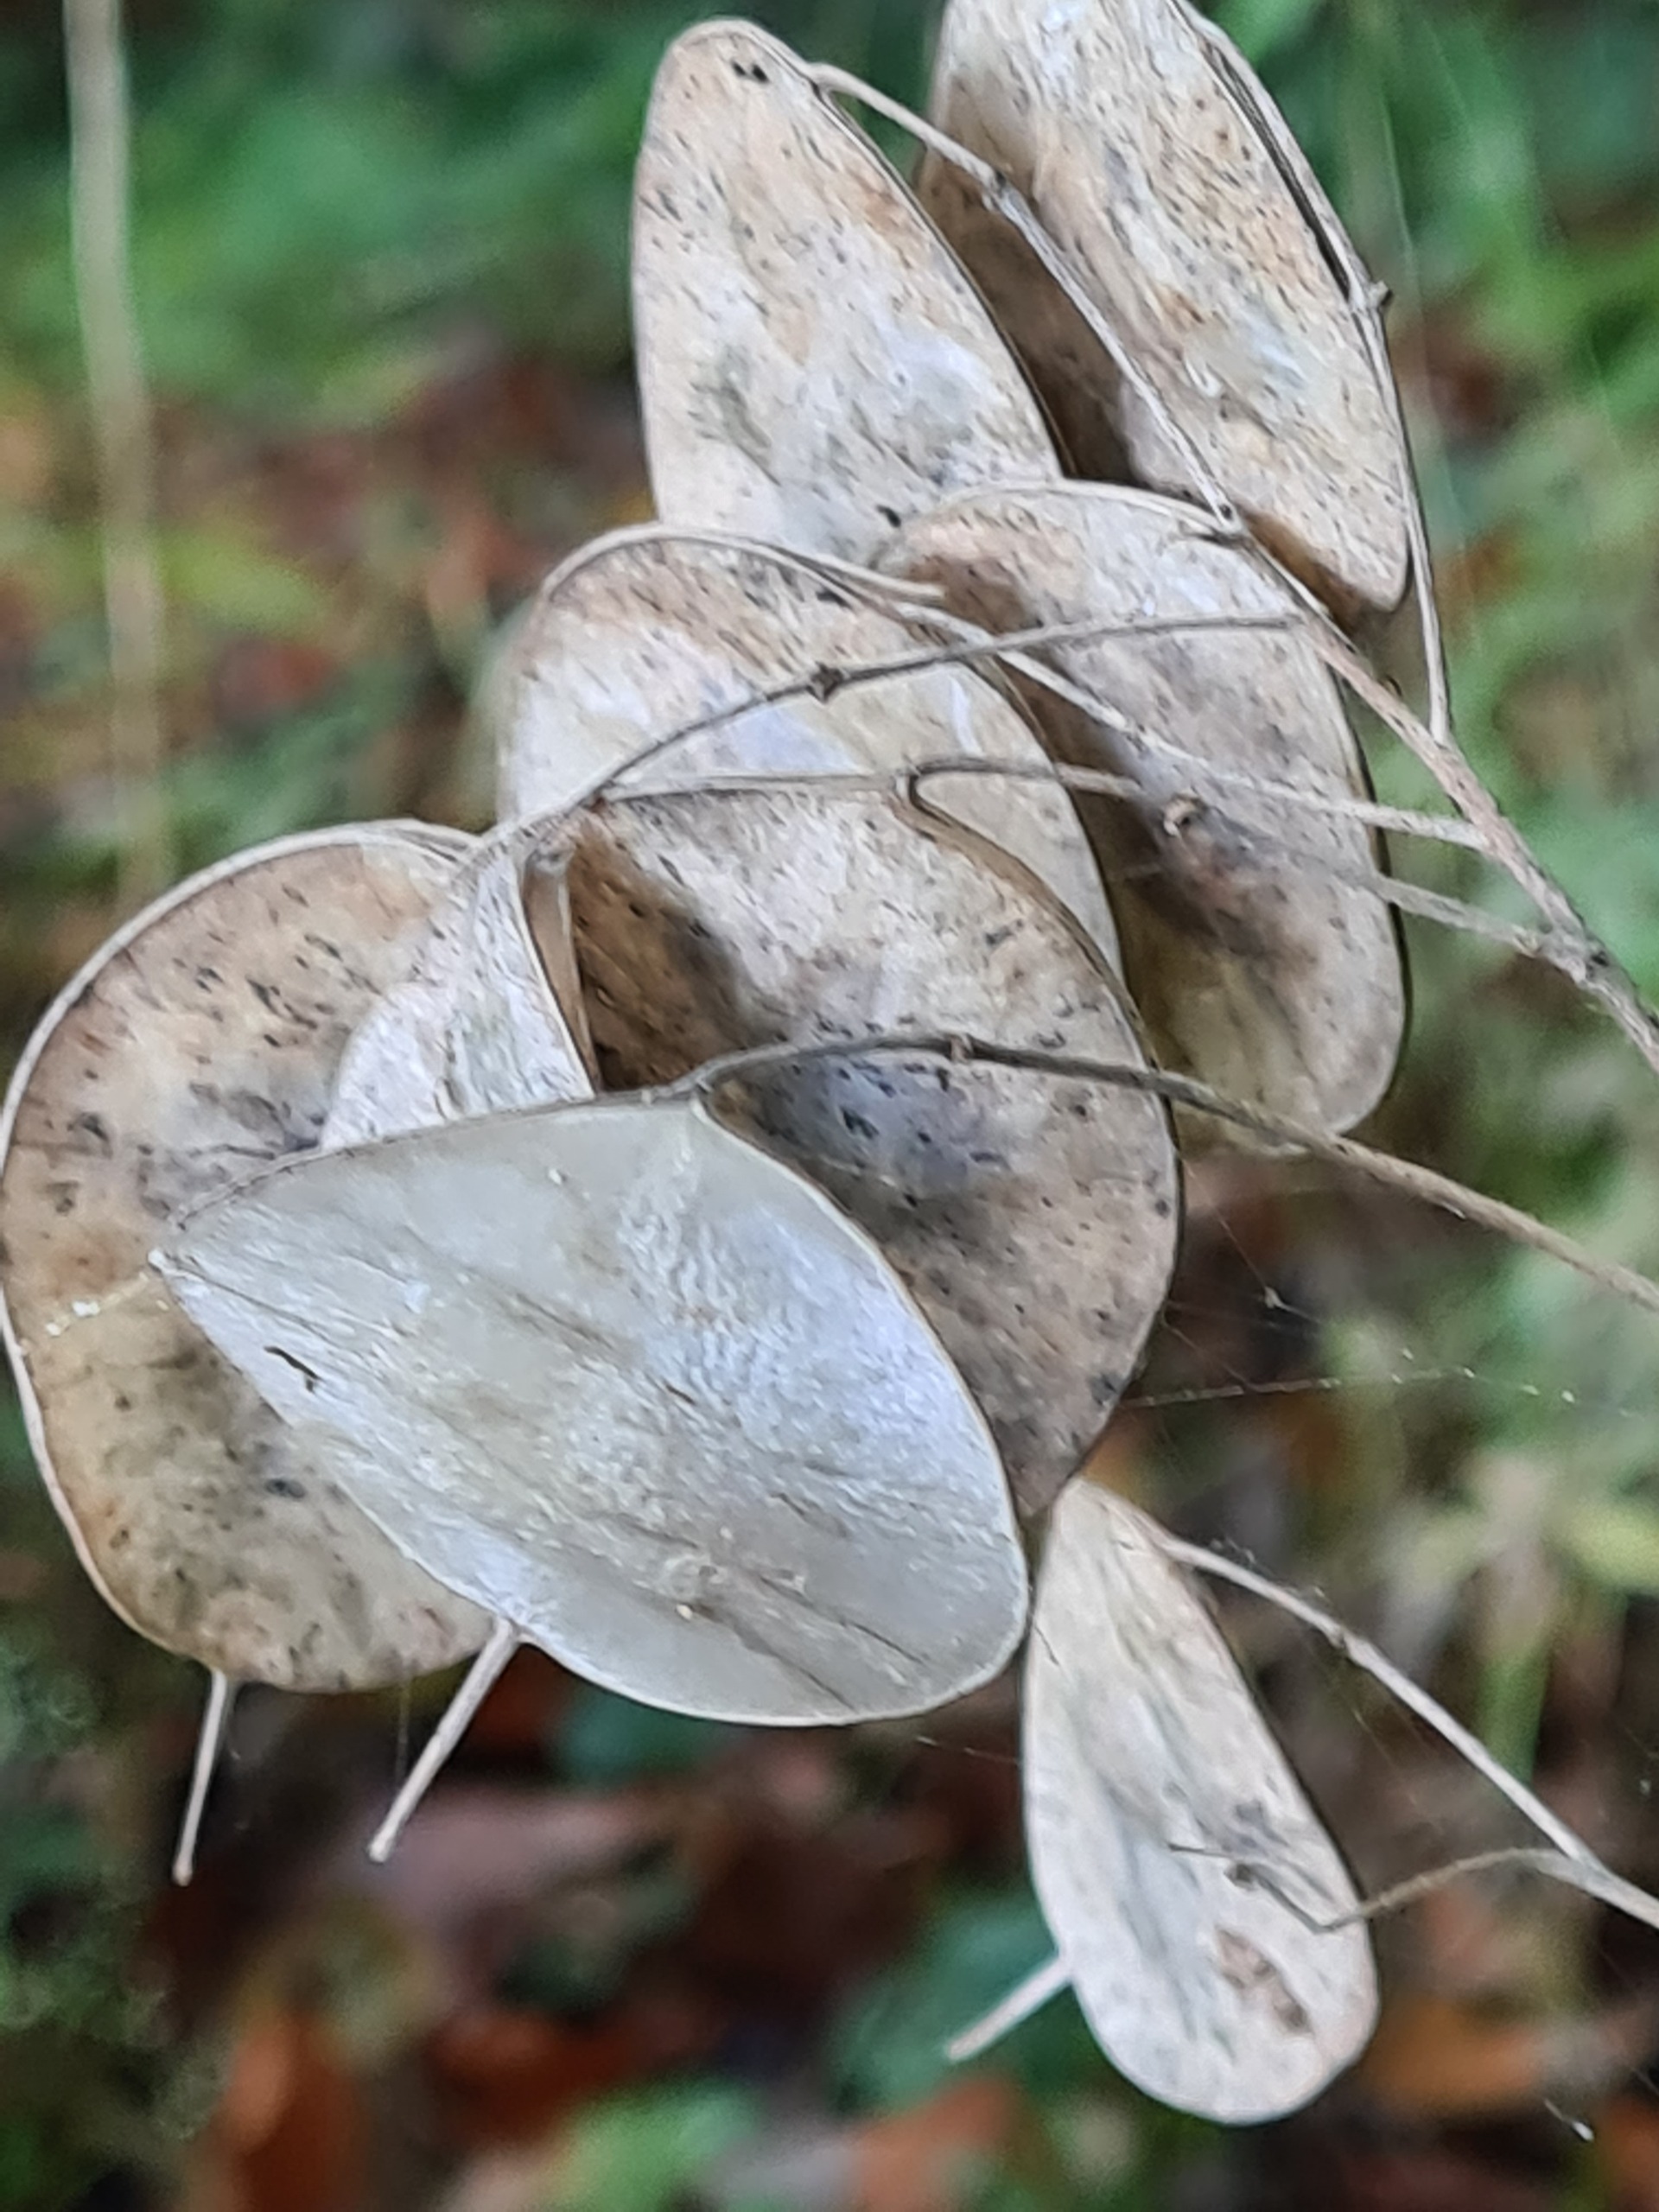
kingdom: Plantae
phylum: Tracheophyta
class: Magnoliopsida
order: Brassicales
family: Brassicaceae
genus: Lunaria
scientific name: Lunaria annua
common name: Judaspenge
